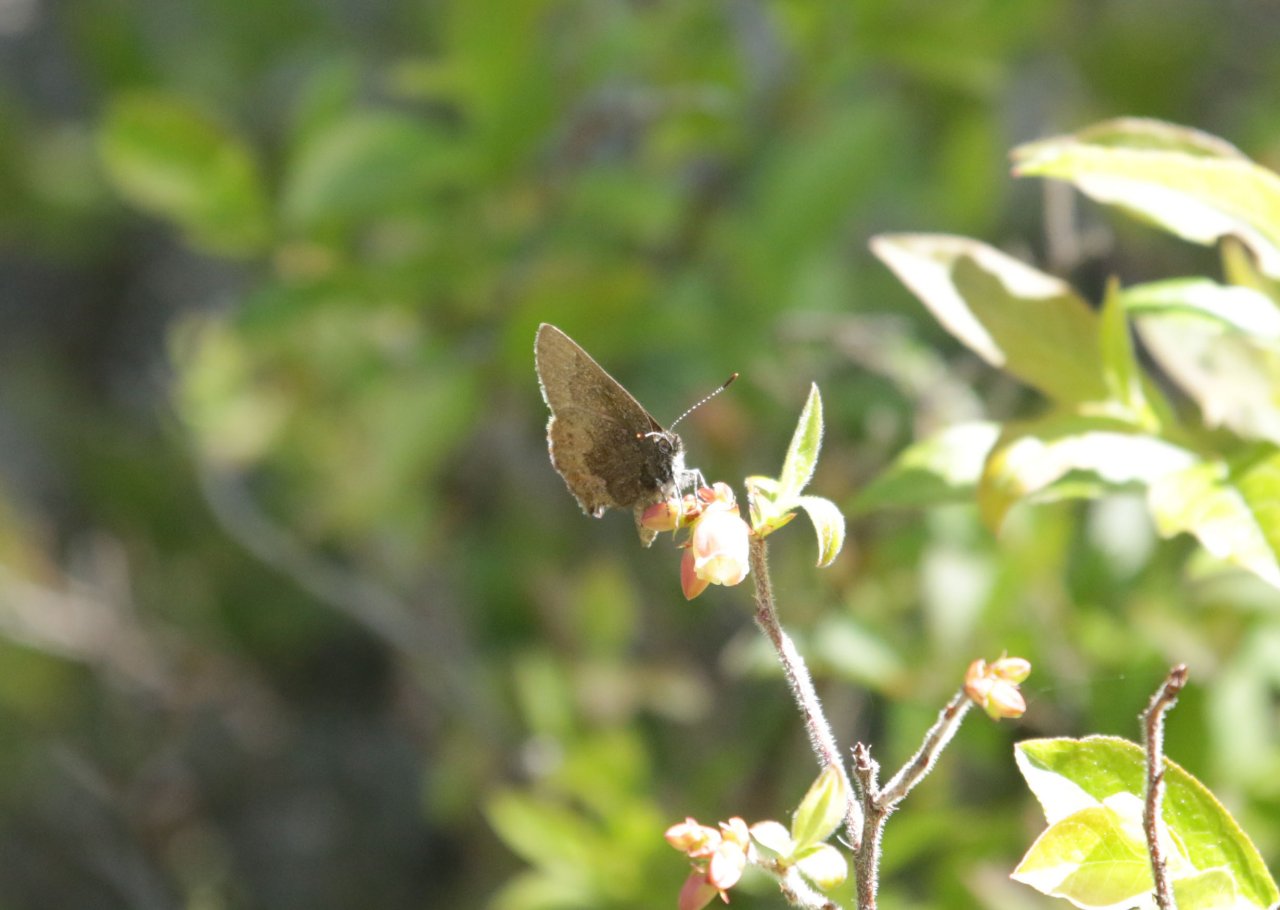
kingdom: Animalia
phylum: Arthropoda
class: Insecta
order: Lepidoptera
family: Lycaenidae
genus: Incisalia
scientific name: Incisalia irioides
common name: Brown Elfin
